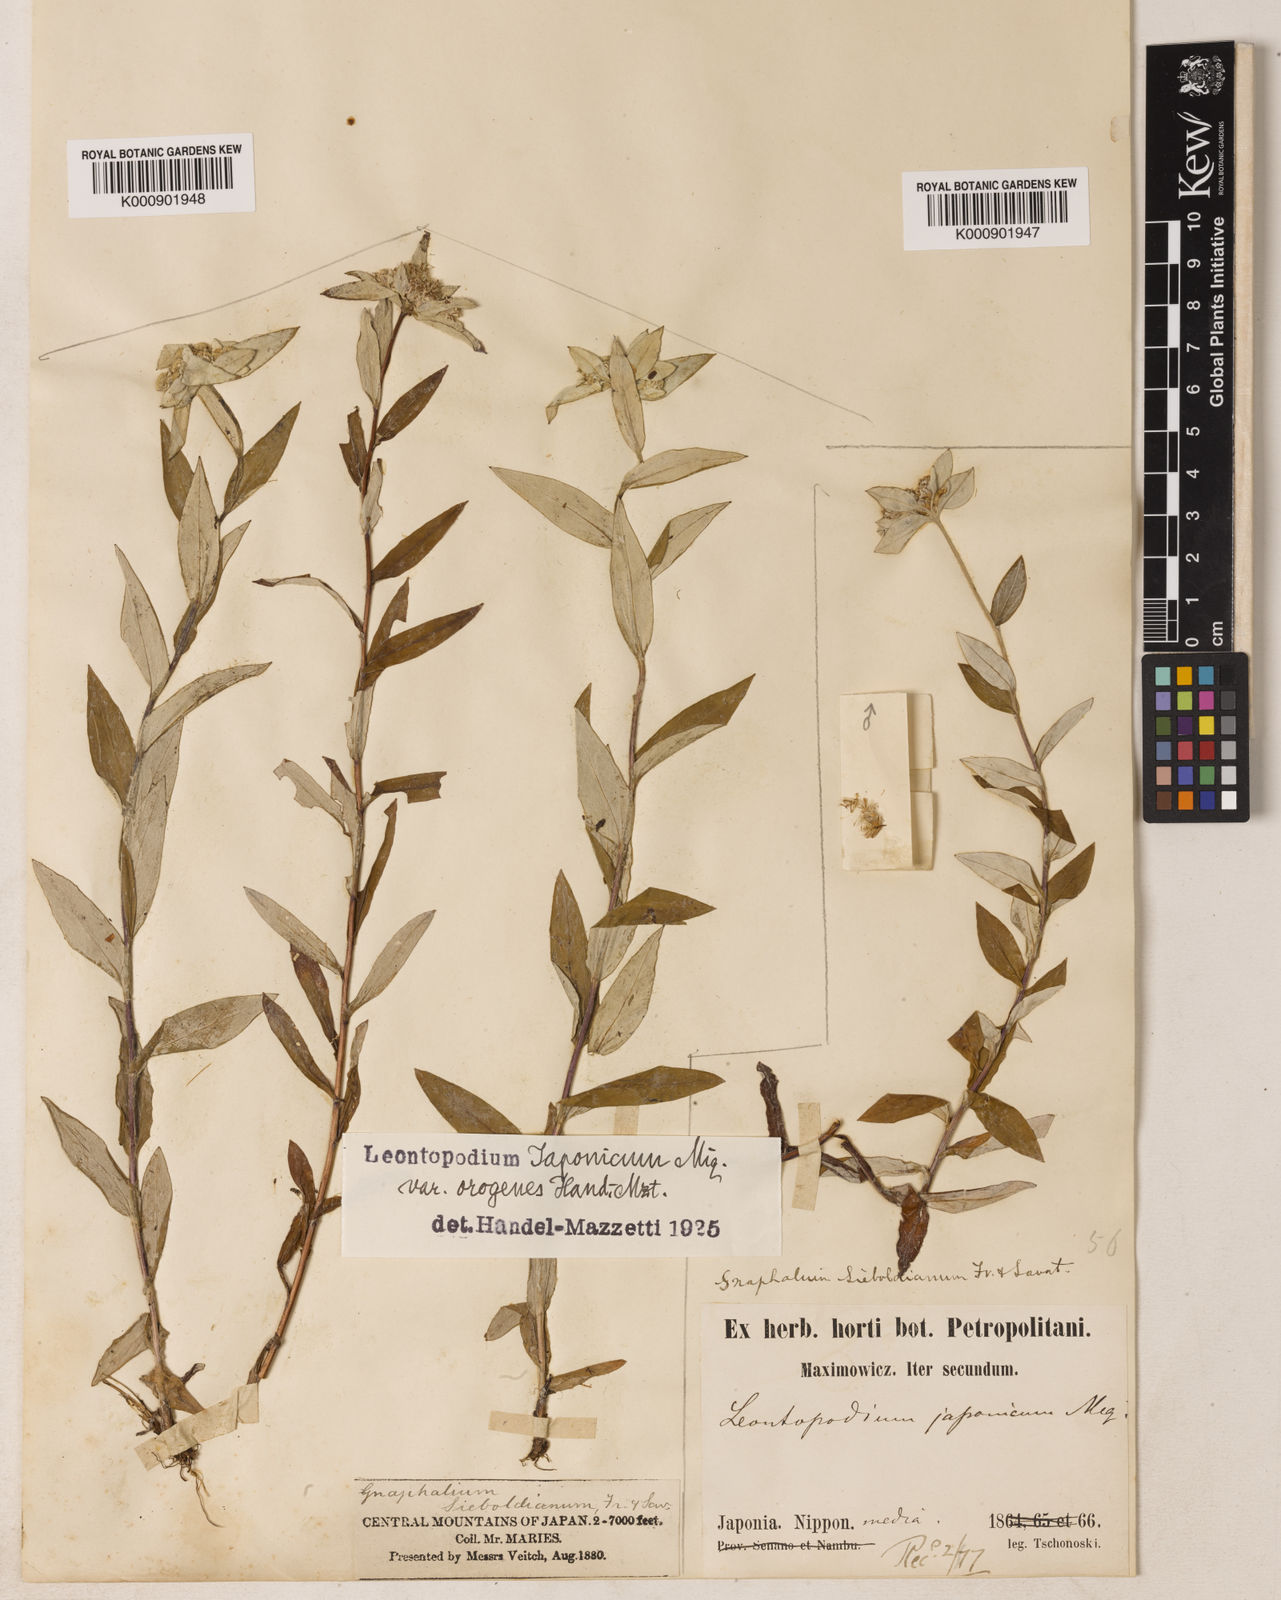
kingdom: Plantae
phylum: Tracheophyta
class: Magnoliopsida
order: Asterales
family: Asteraceae
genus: Leontopodium
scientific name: Leontopodium japonicum
